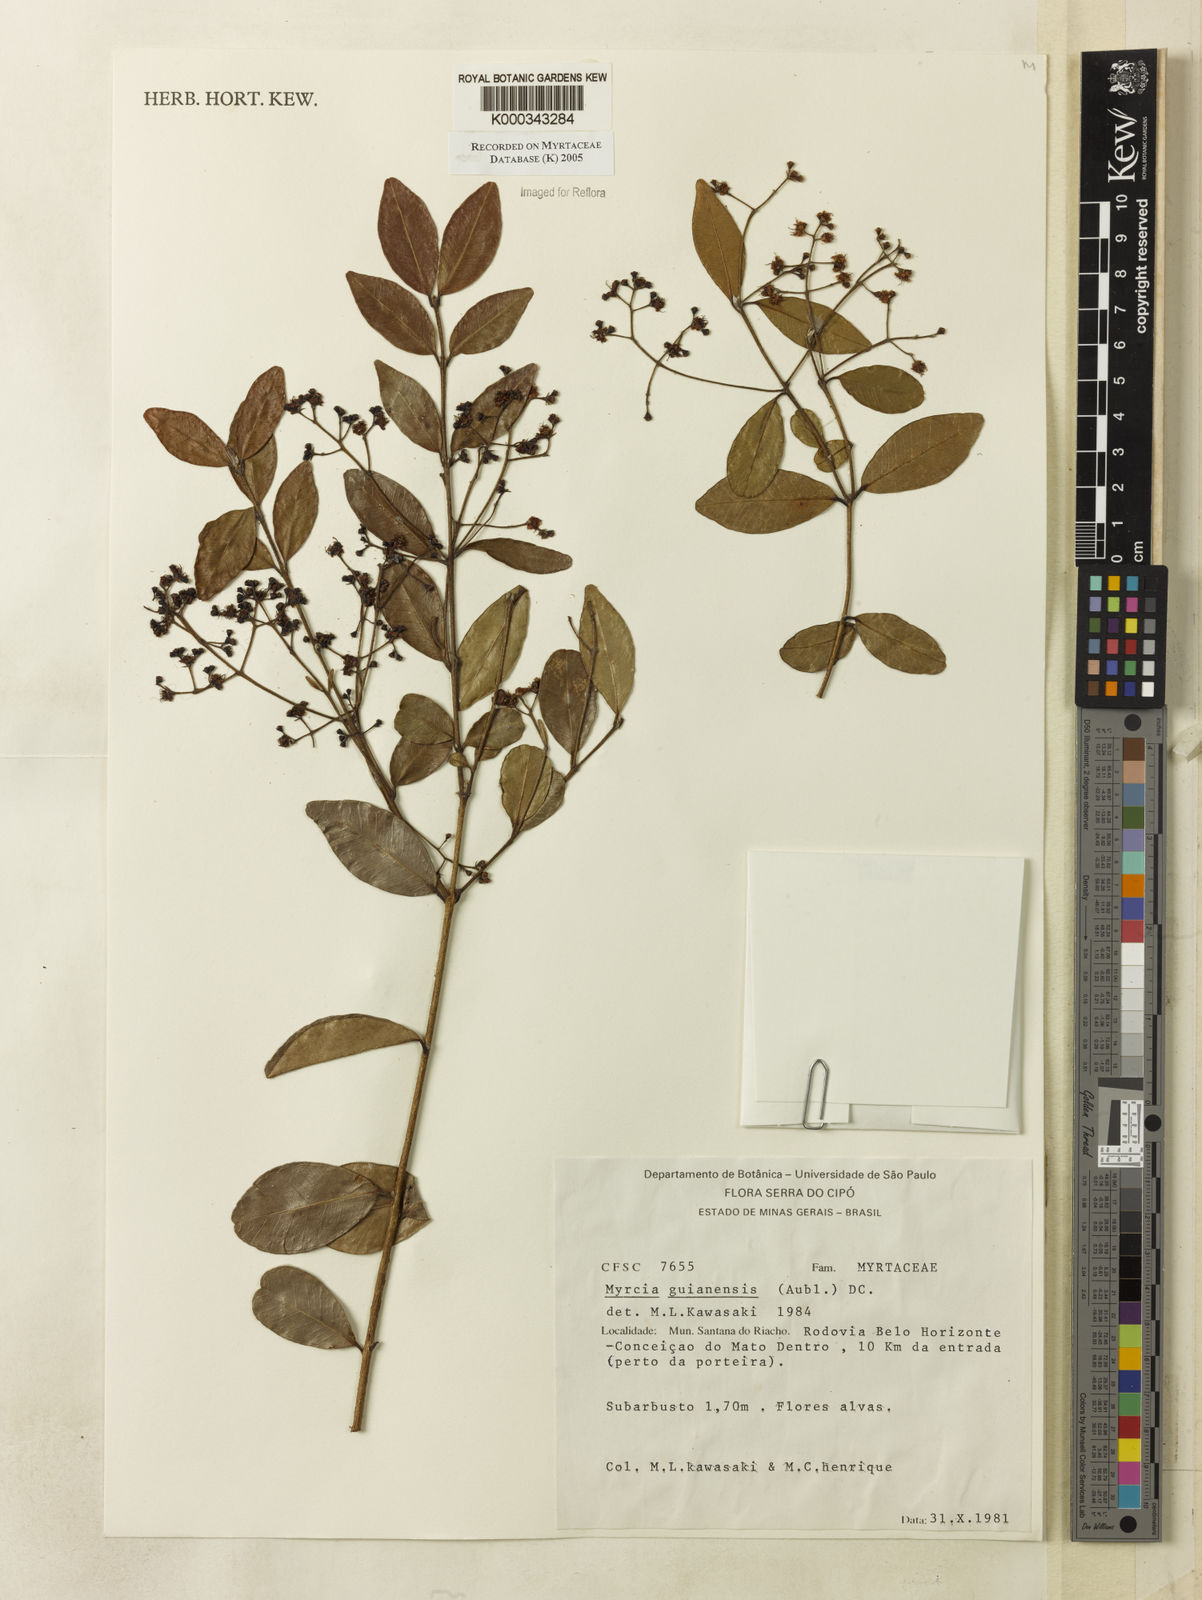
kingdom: Plantae
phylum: Tracheophyta
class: Magnoliopsida
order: Myrtales
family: Myrtaceae
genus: Myrcia
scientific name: Myrcia guianensis
